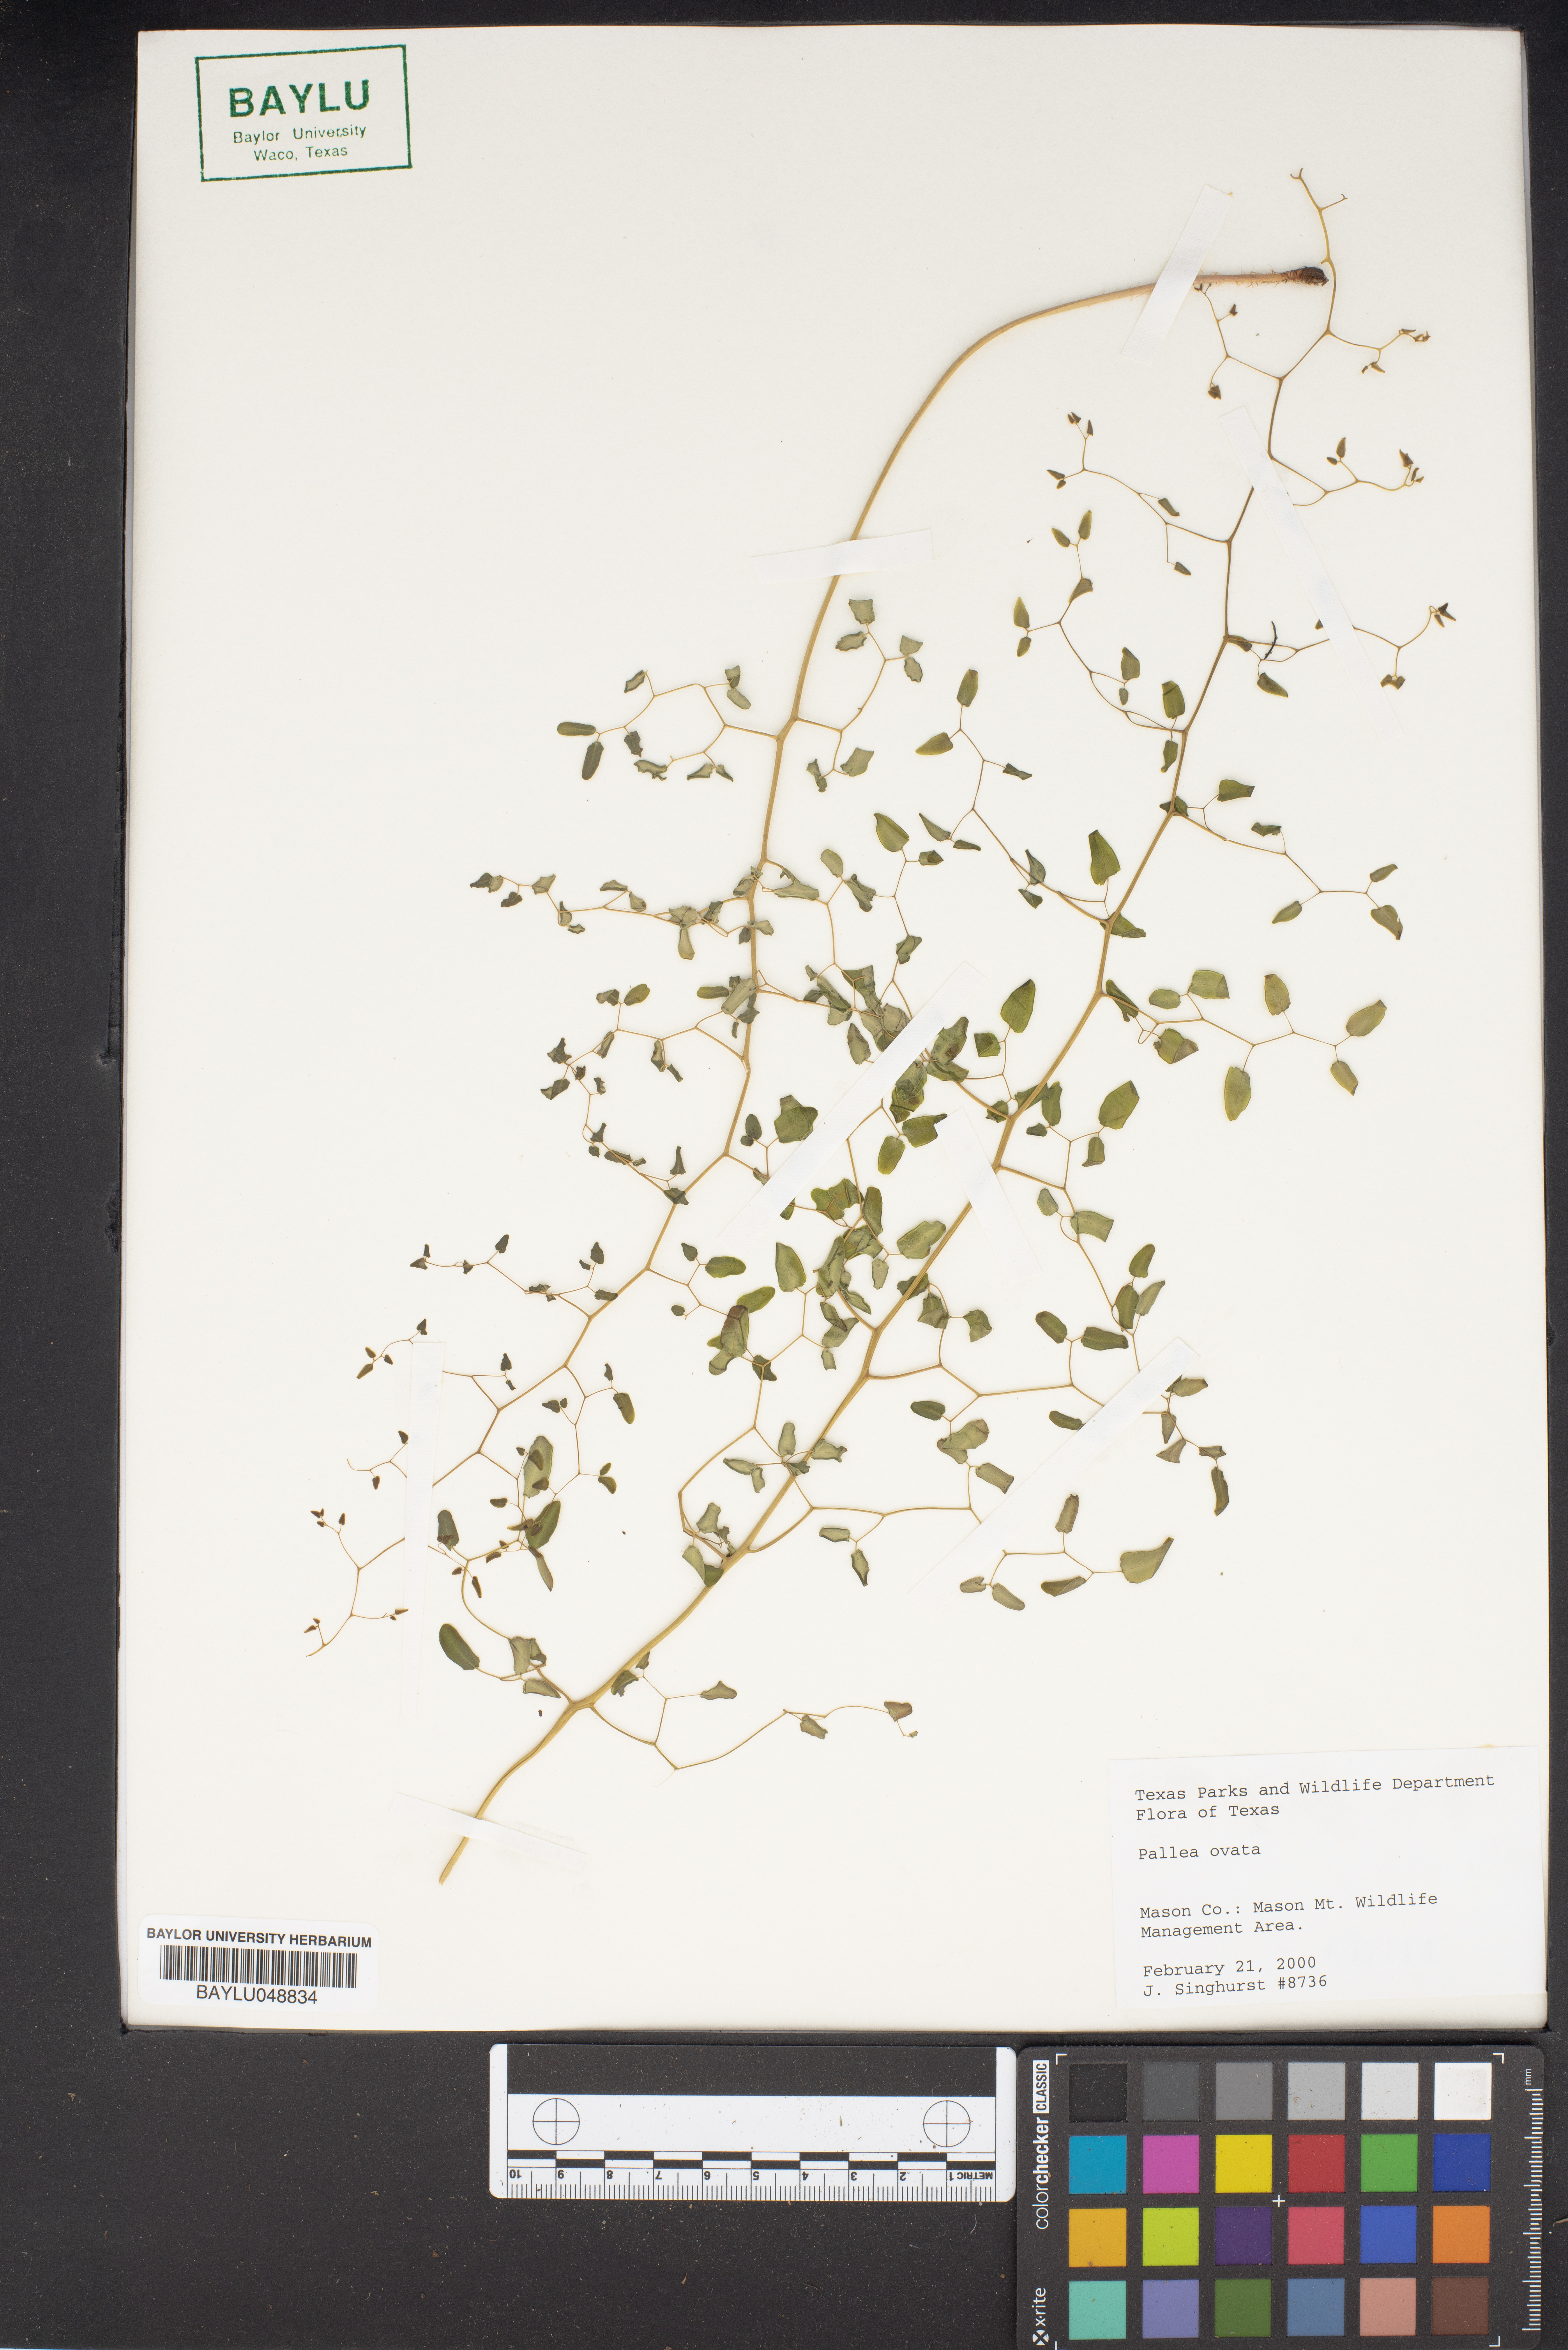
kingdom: Plantae
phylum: Tracheophyta
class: Polypodiopsida
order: Polypodiales
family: Pteridaceae
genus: Pellaea
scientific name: Pellaea ovata
